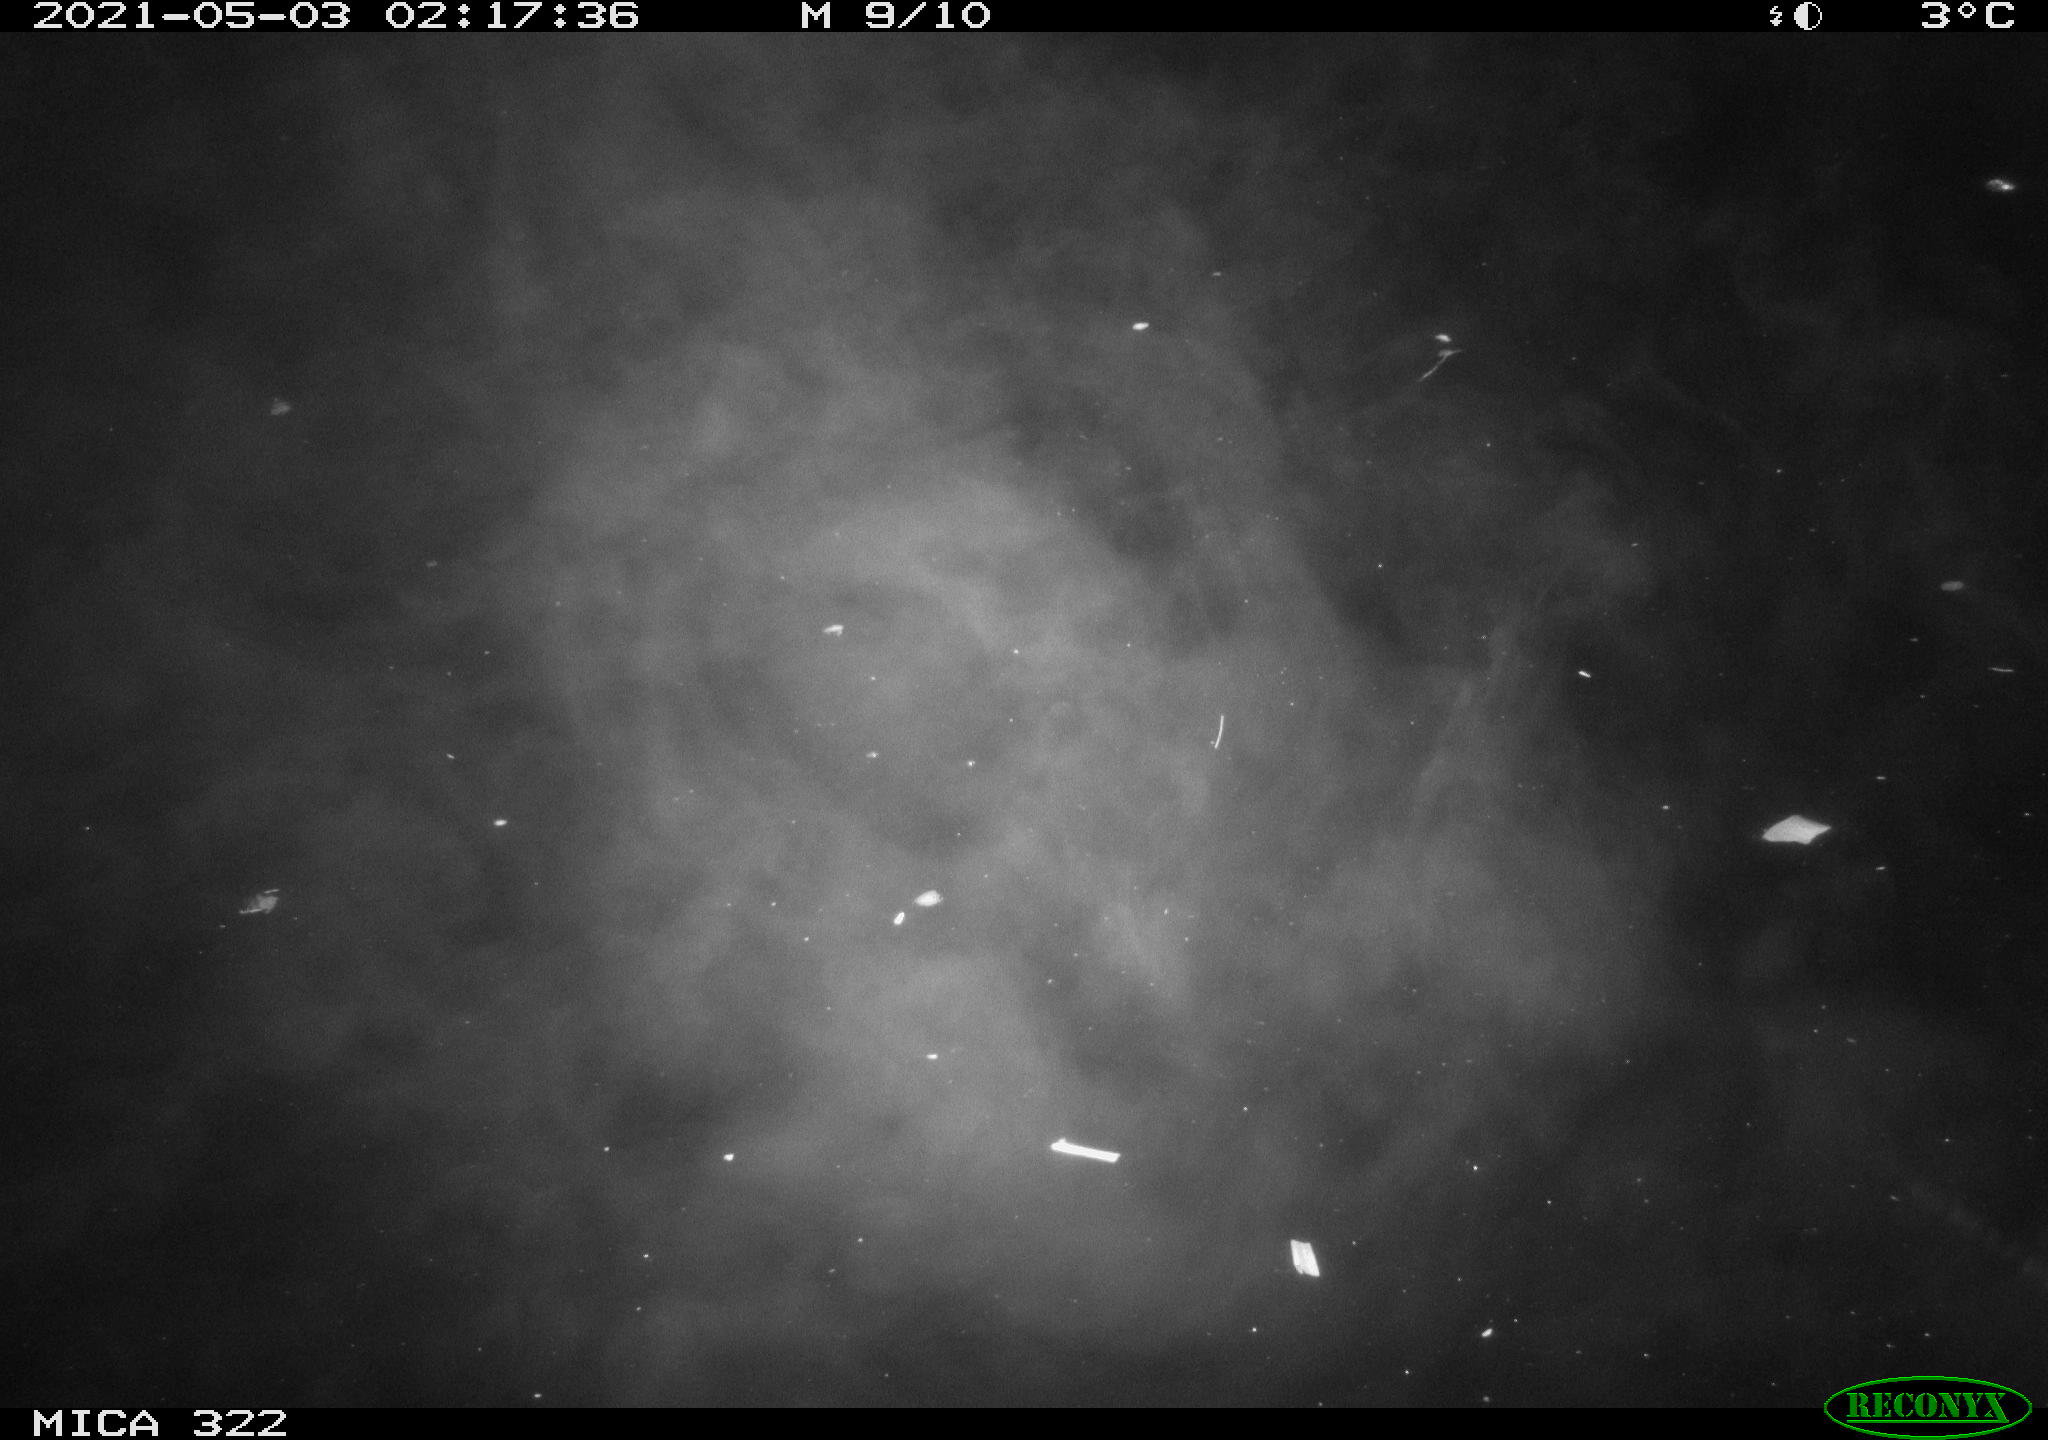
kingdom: Animalia
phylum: Chordata
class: Aves
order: Anseriformes
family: Anatidae
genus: Anas
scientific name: Anas platyrhynchos
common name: Mallard
